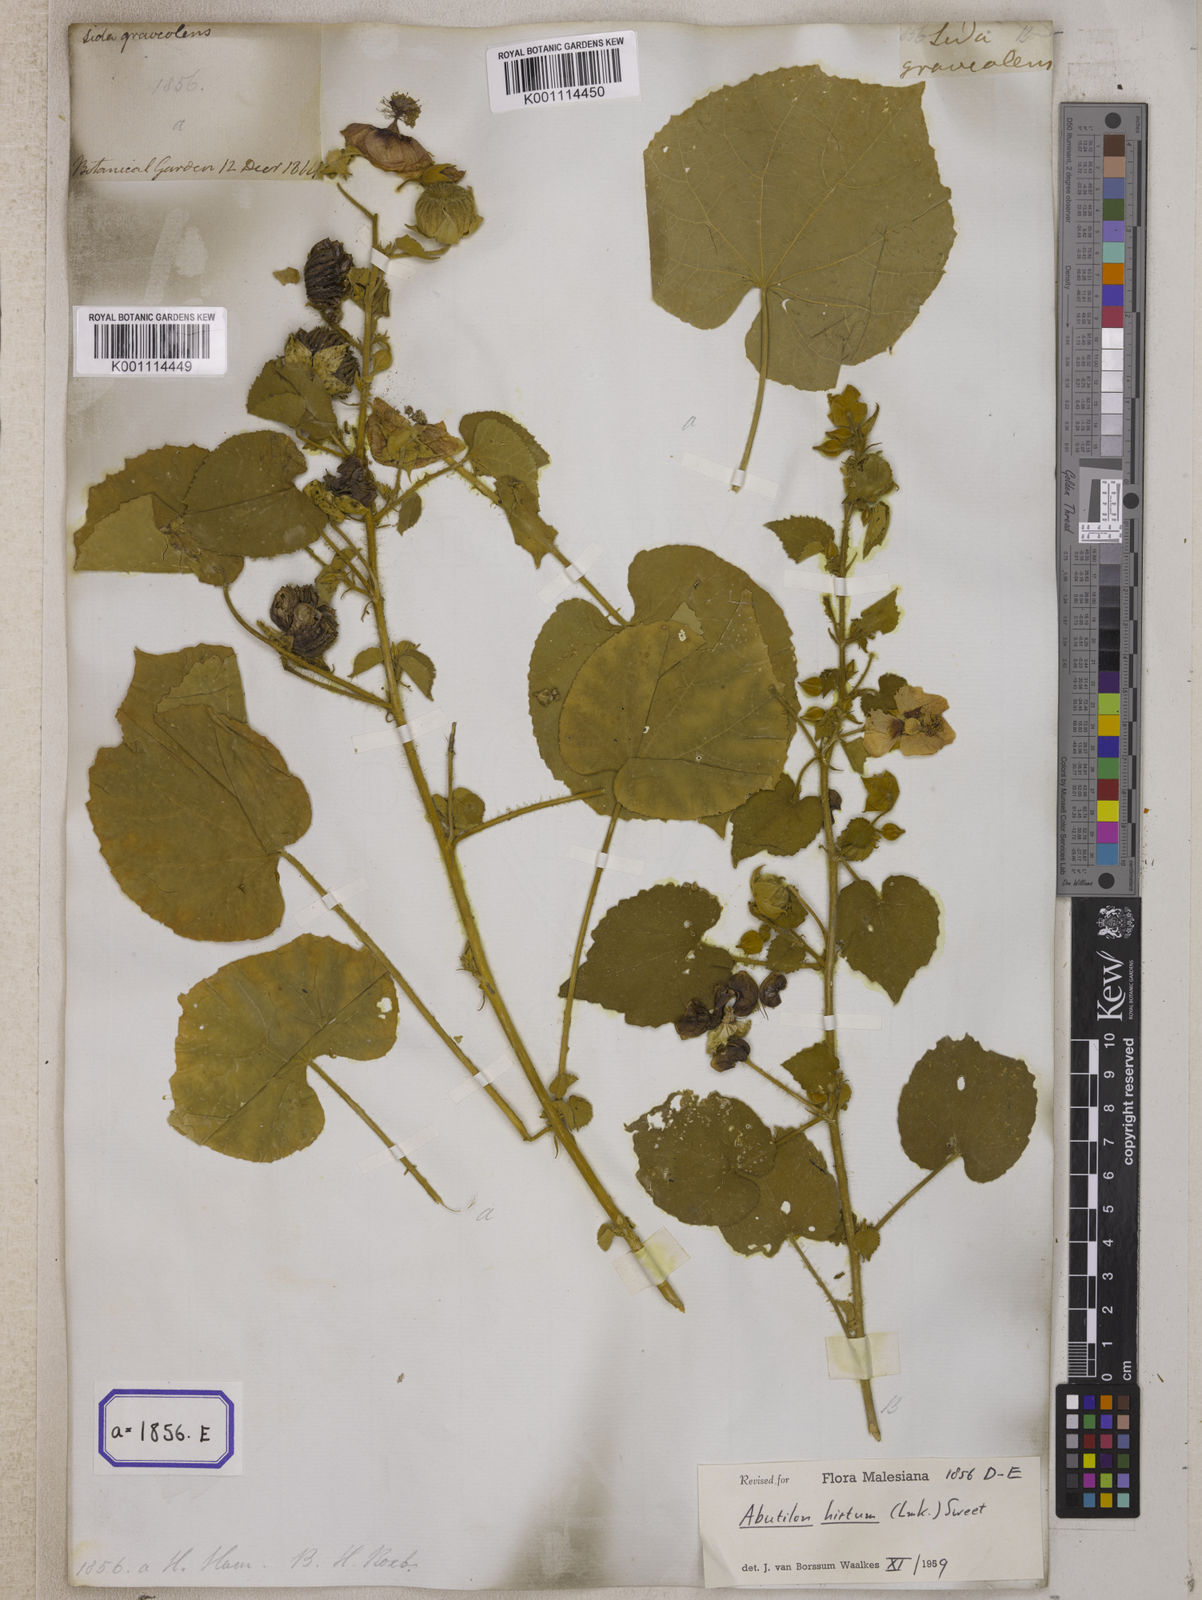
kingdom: Plantae
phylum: Tracheophyta
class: Magnoliopsida
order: Malvales
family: Malvaceae
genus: Sida
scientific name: Sida
